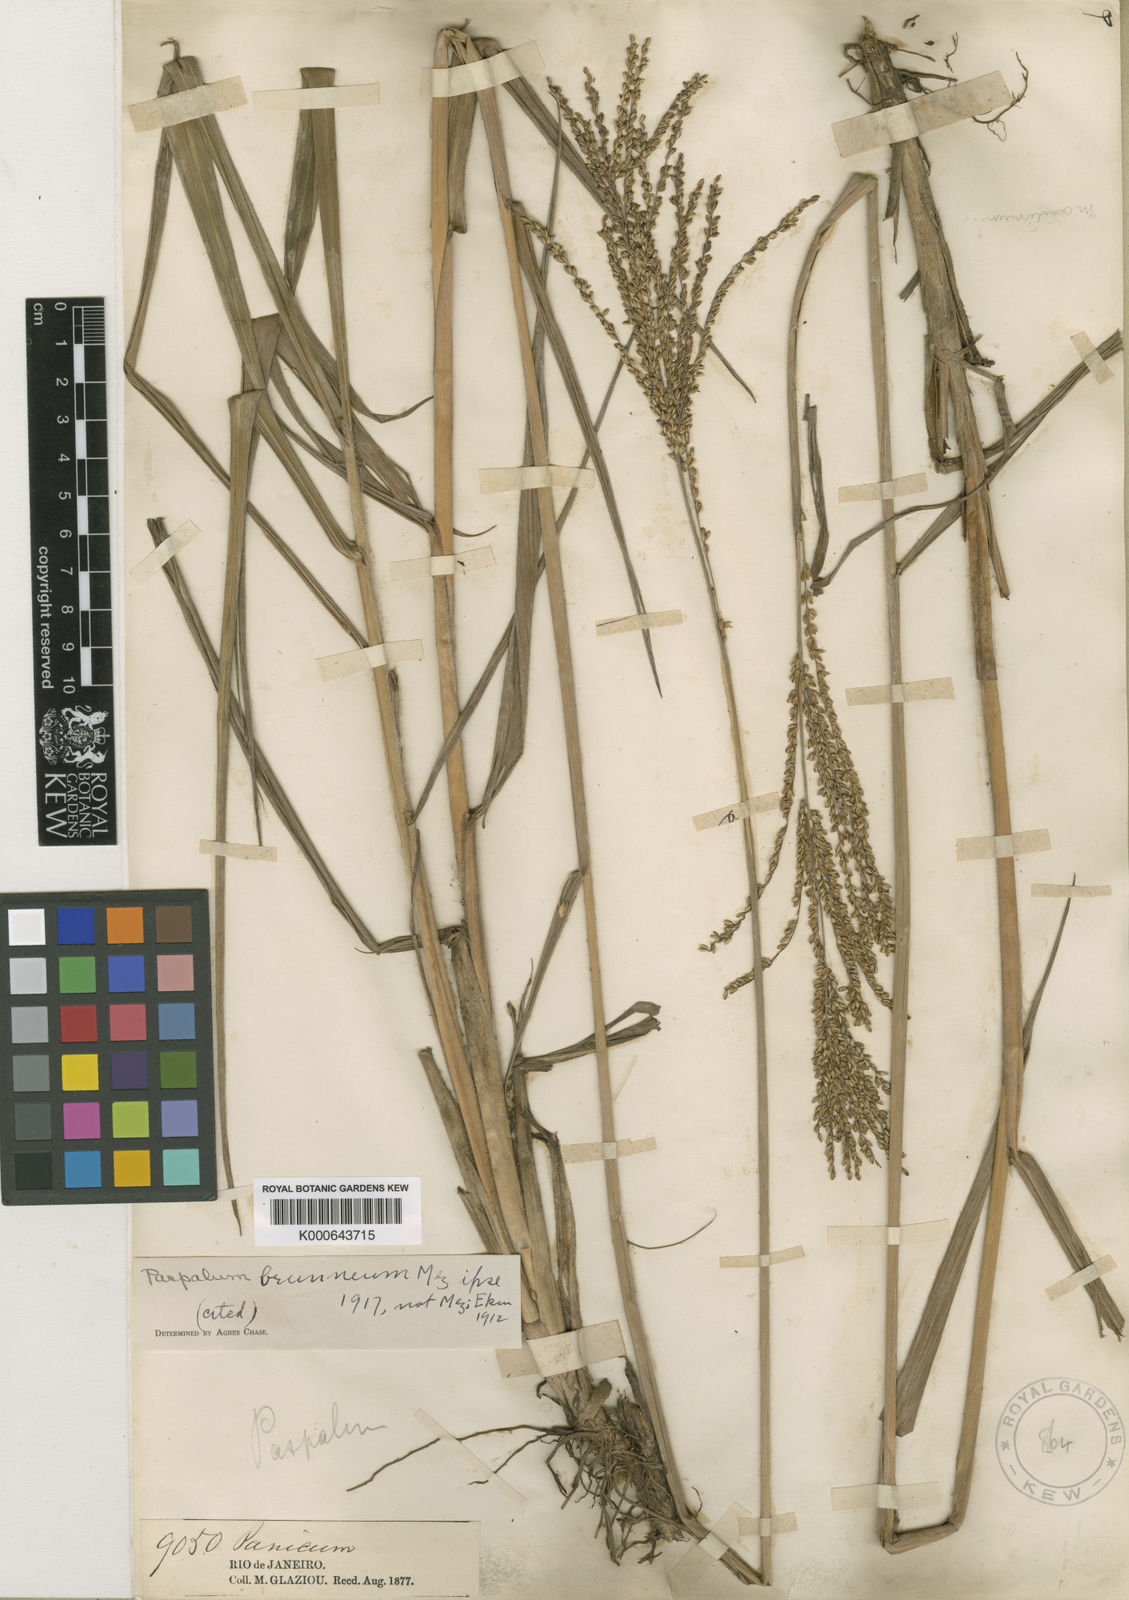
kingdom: Plantae
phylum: Tracheophyta
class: Liliopsida
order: Poales
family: Poaceae
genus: Paspalum
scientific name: Paspalum coryphaeum
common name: Emperor crowngrass
